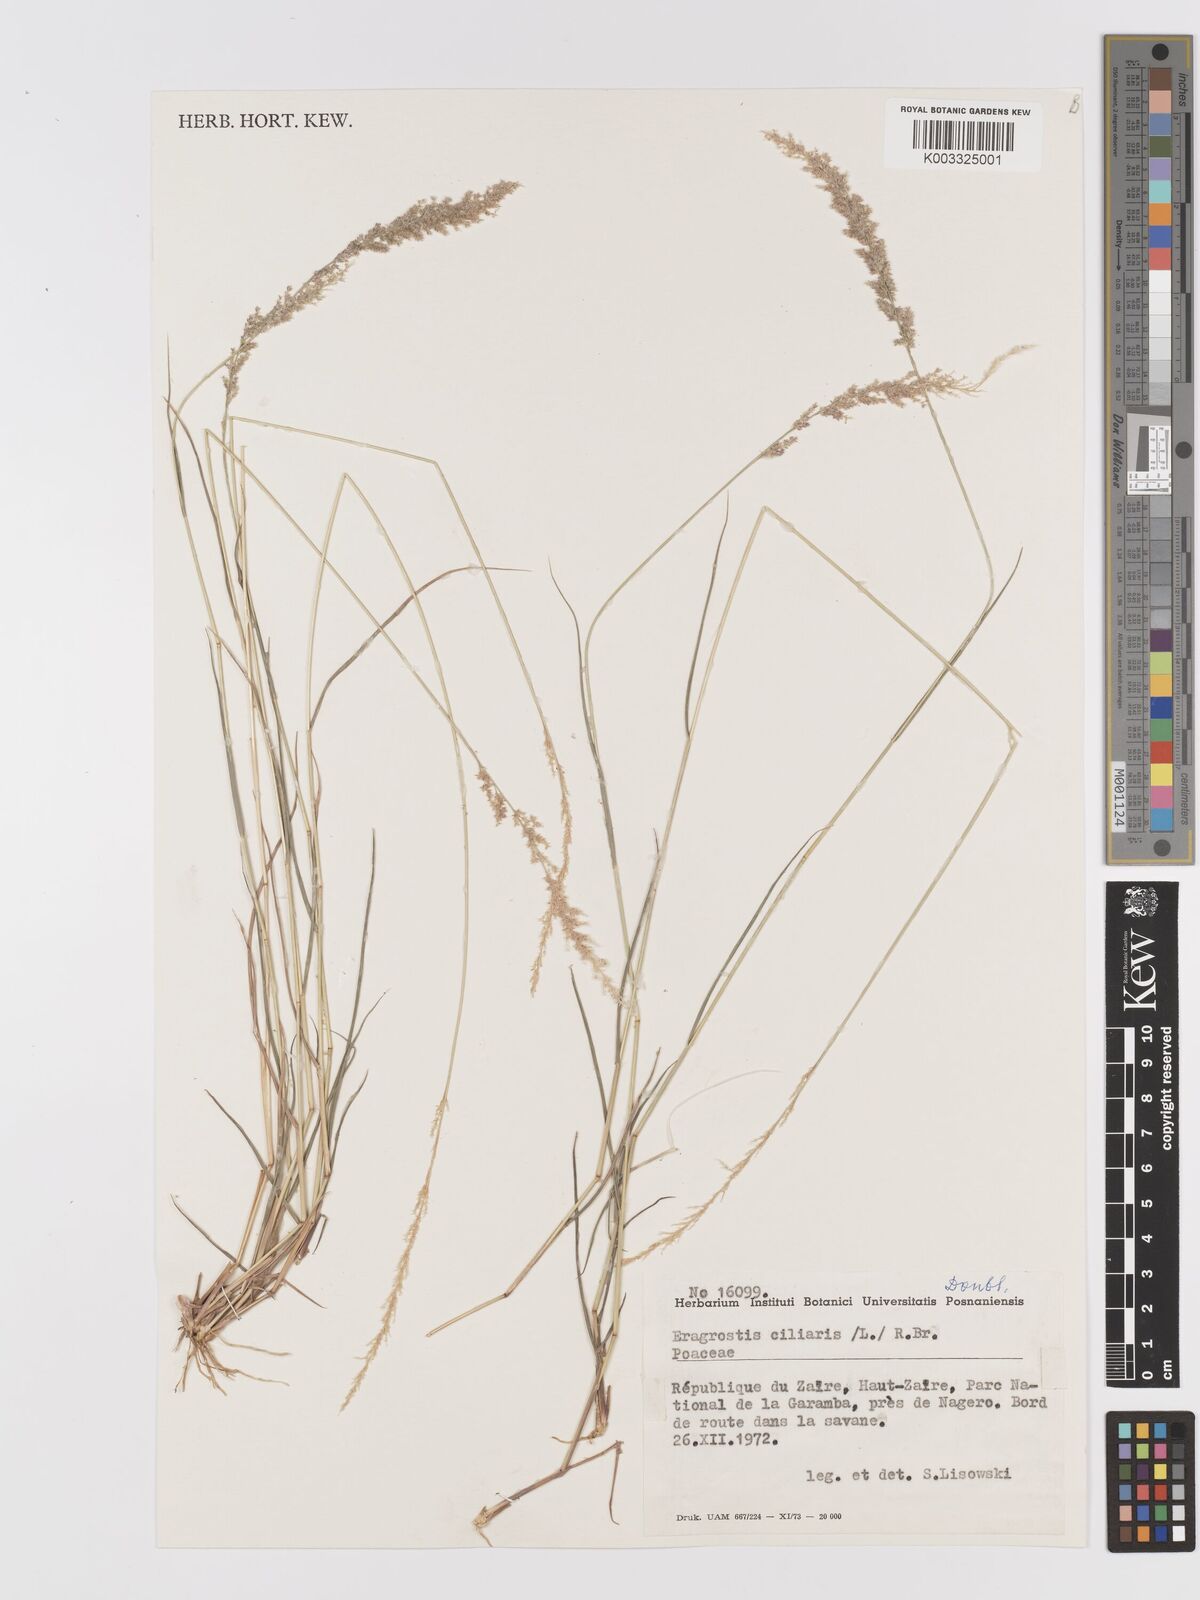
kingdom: Plantae
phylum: Tracheophyta
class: Liliopsida
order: Poales
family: Poaceae
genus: Eragrostis
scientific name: Eragrostis ciliaris
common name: Gophertail lovegrass
